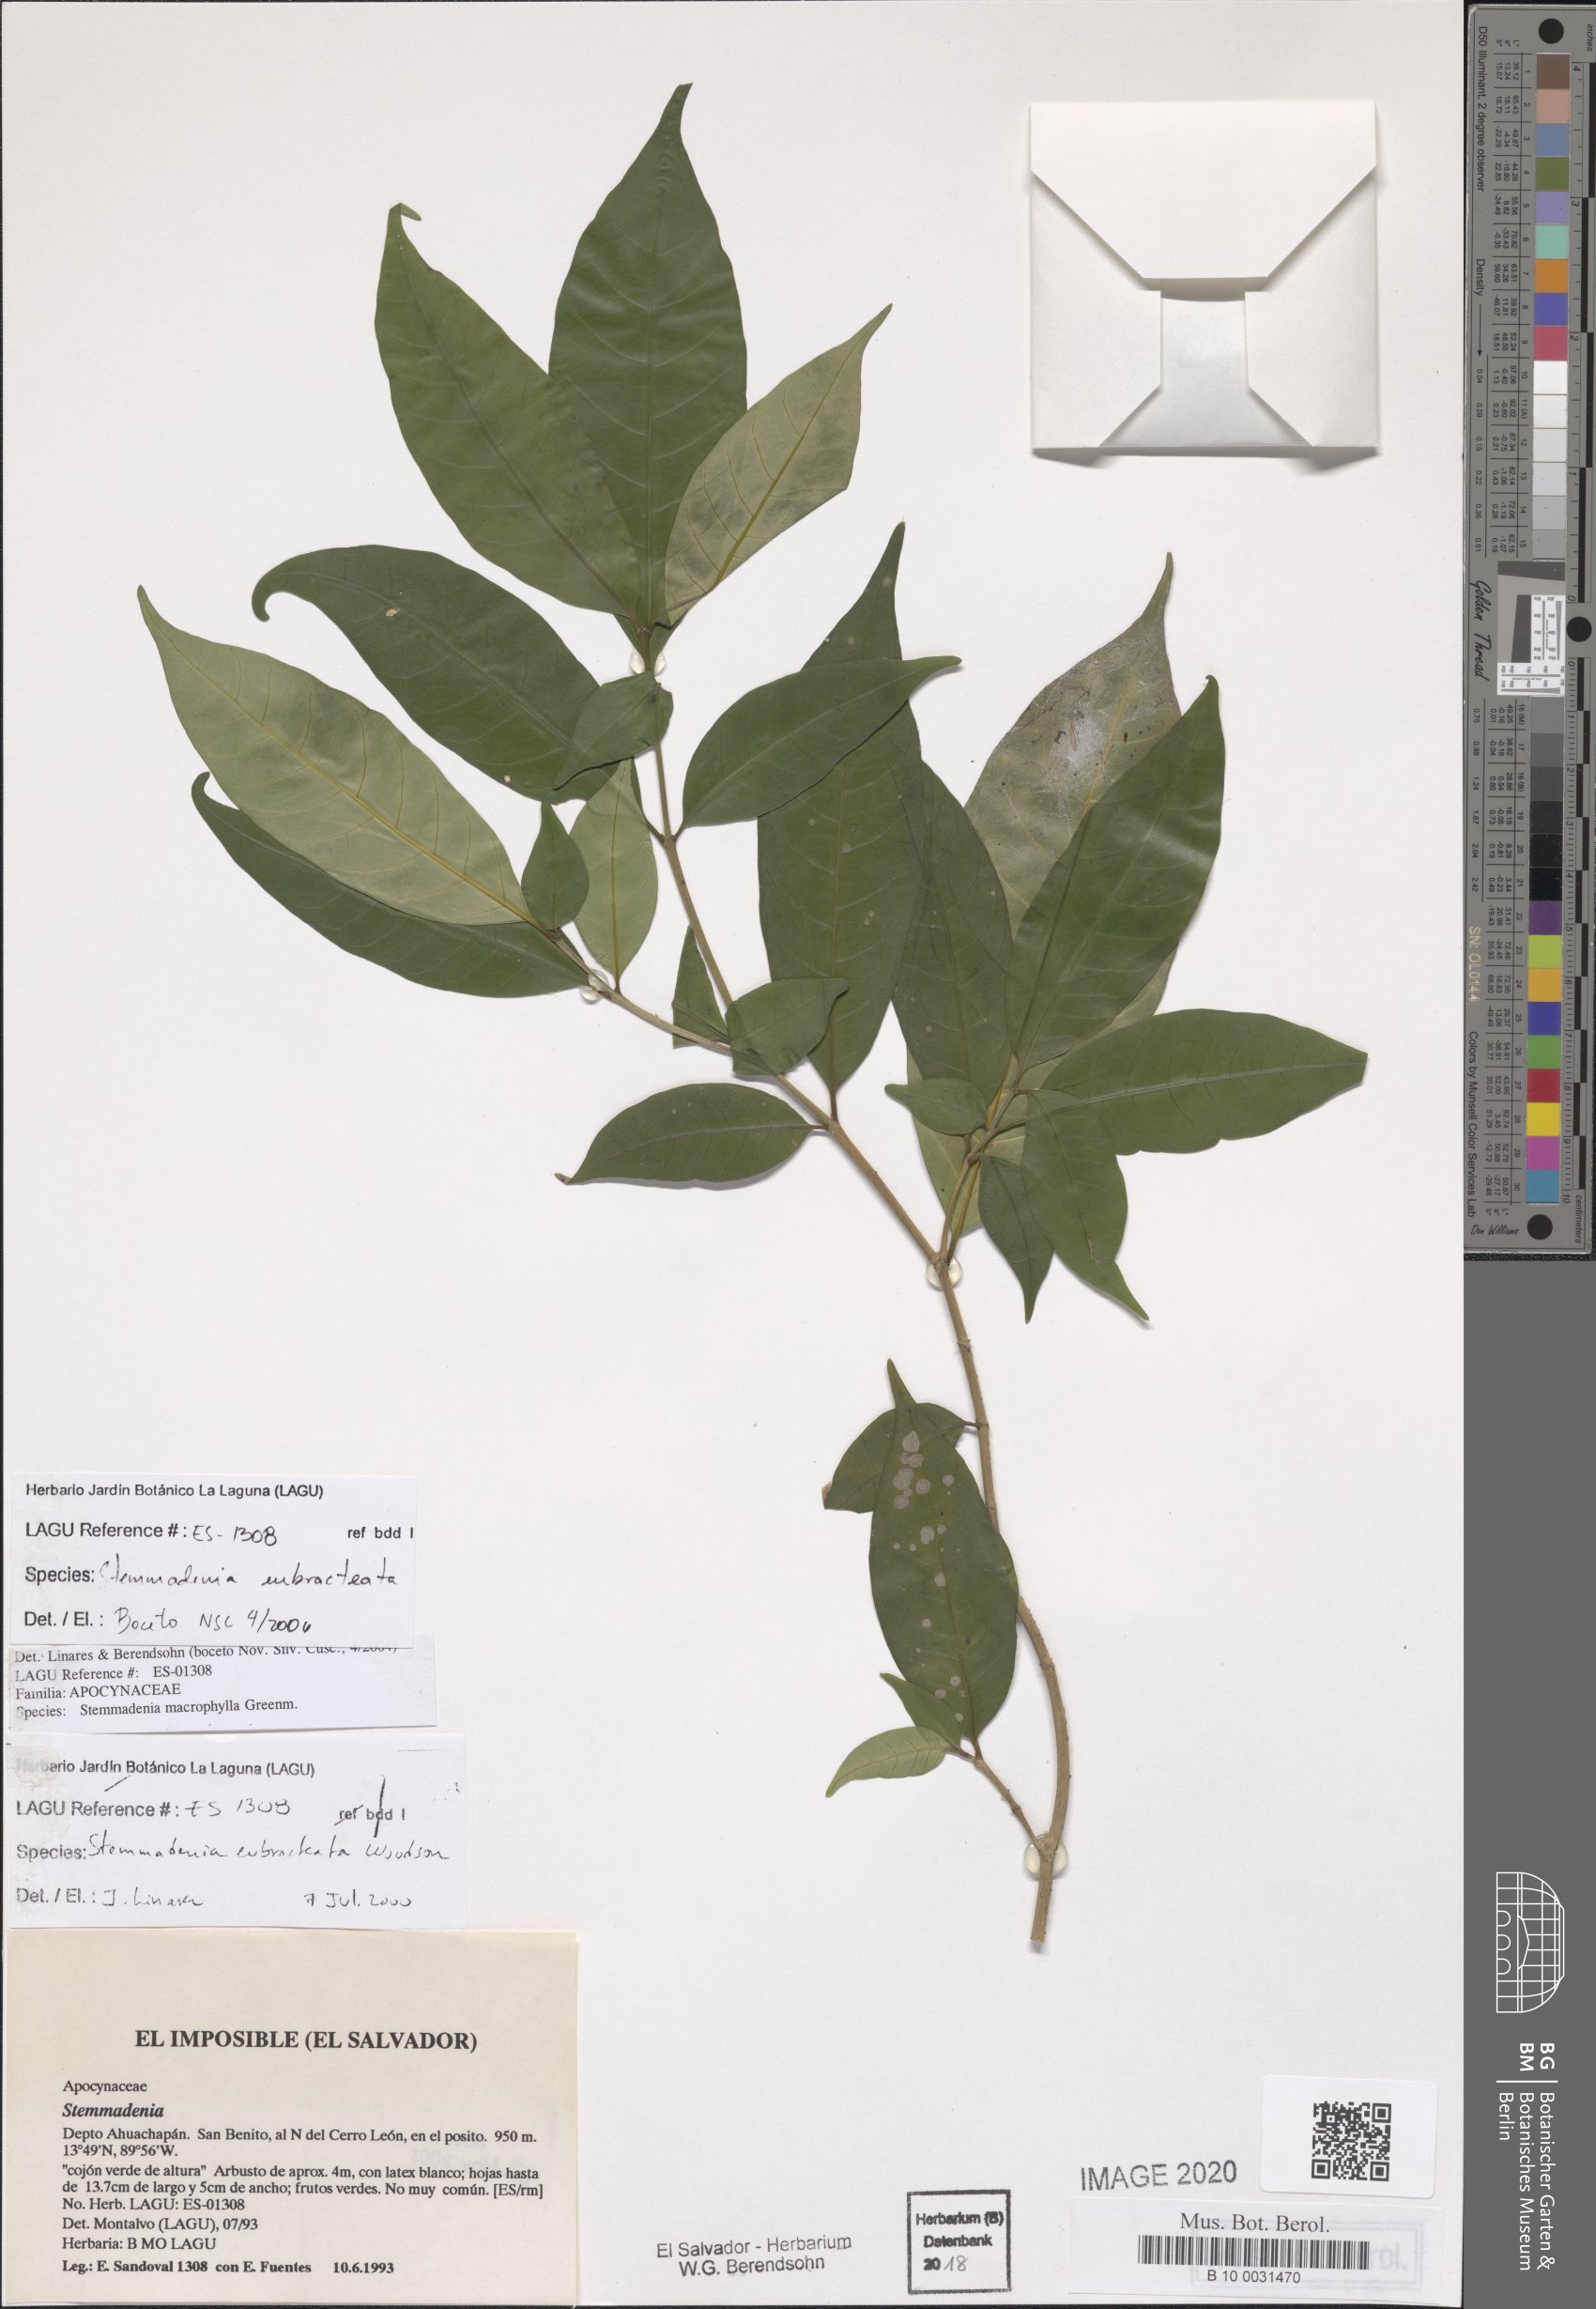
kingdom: Plantae
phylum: Tracheophyta
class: Magnoliopsida
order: Gentianales
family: Apocynaceae
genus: Tabernaemontana
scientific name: Tabernaemontana eubracteata
